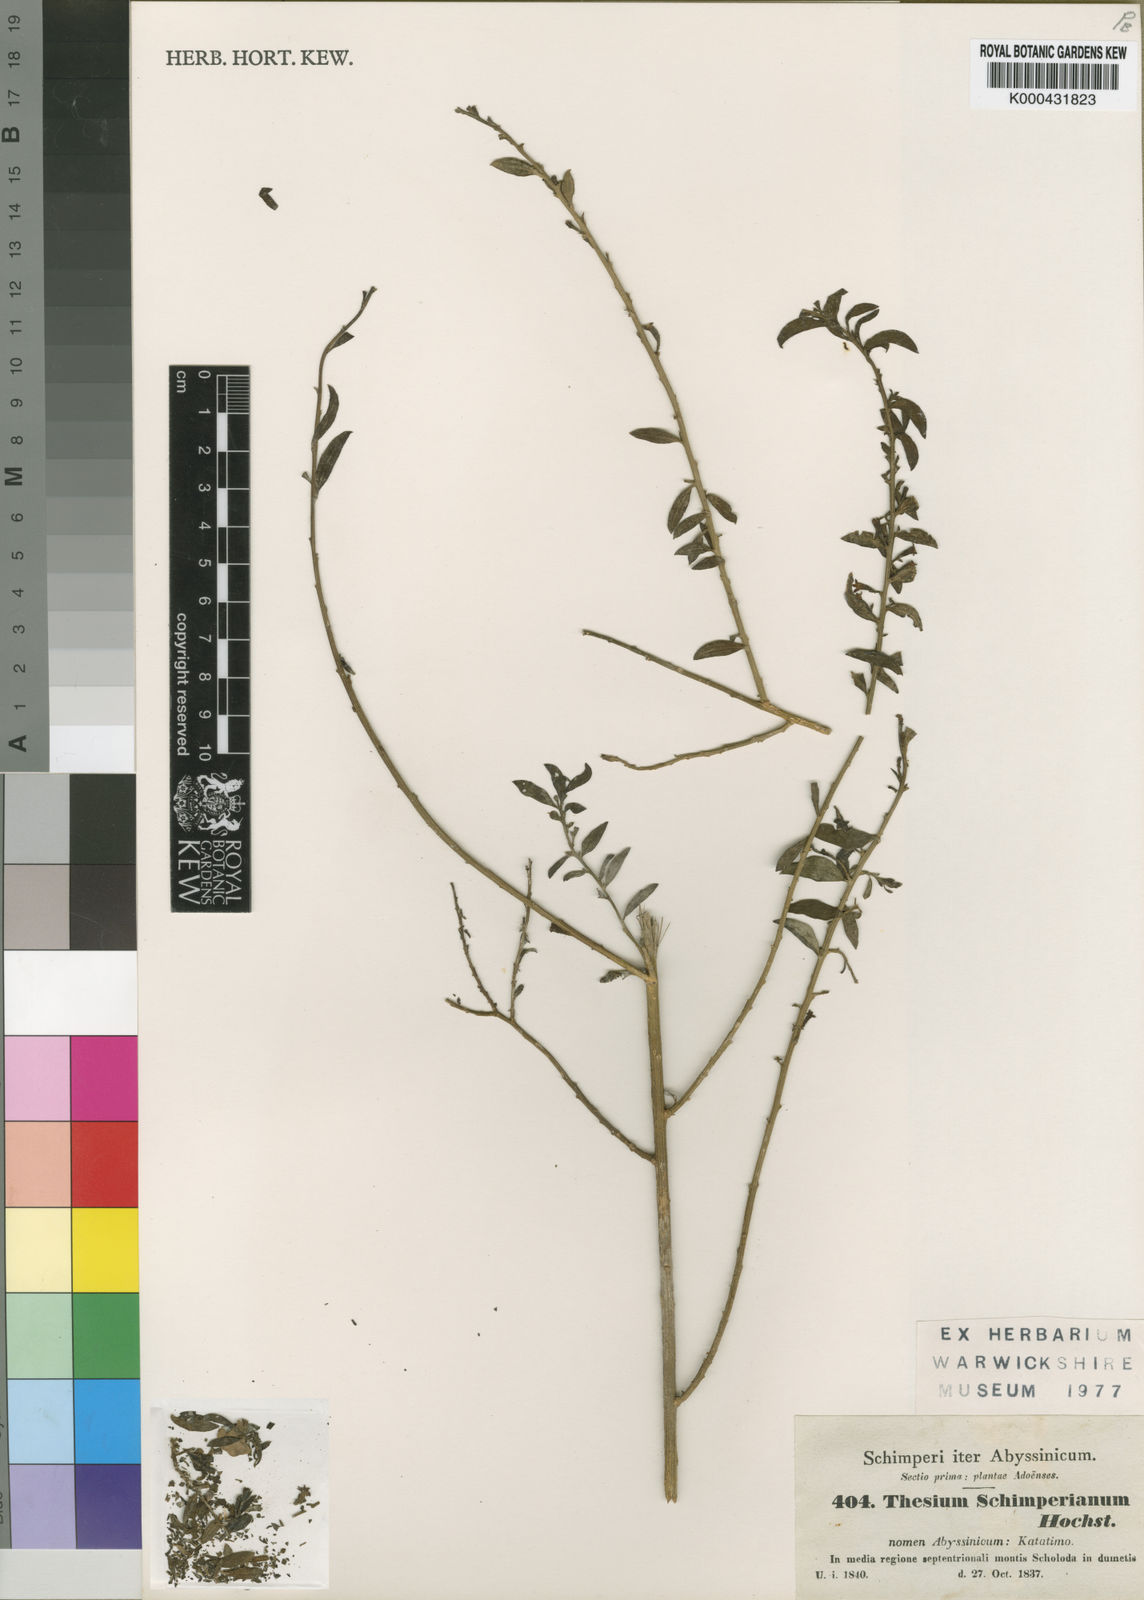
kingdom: Plantae
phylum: Tracheophyta
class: Magnoliopsida
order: Santalales
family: Thesiaceae
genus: Osyridicarpos
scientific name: Osyridicarpos schimperianus
